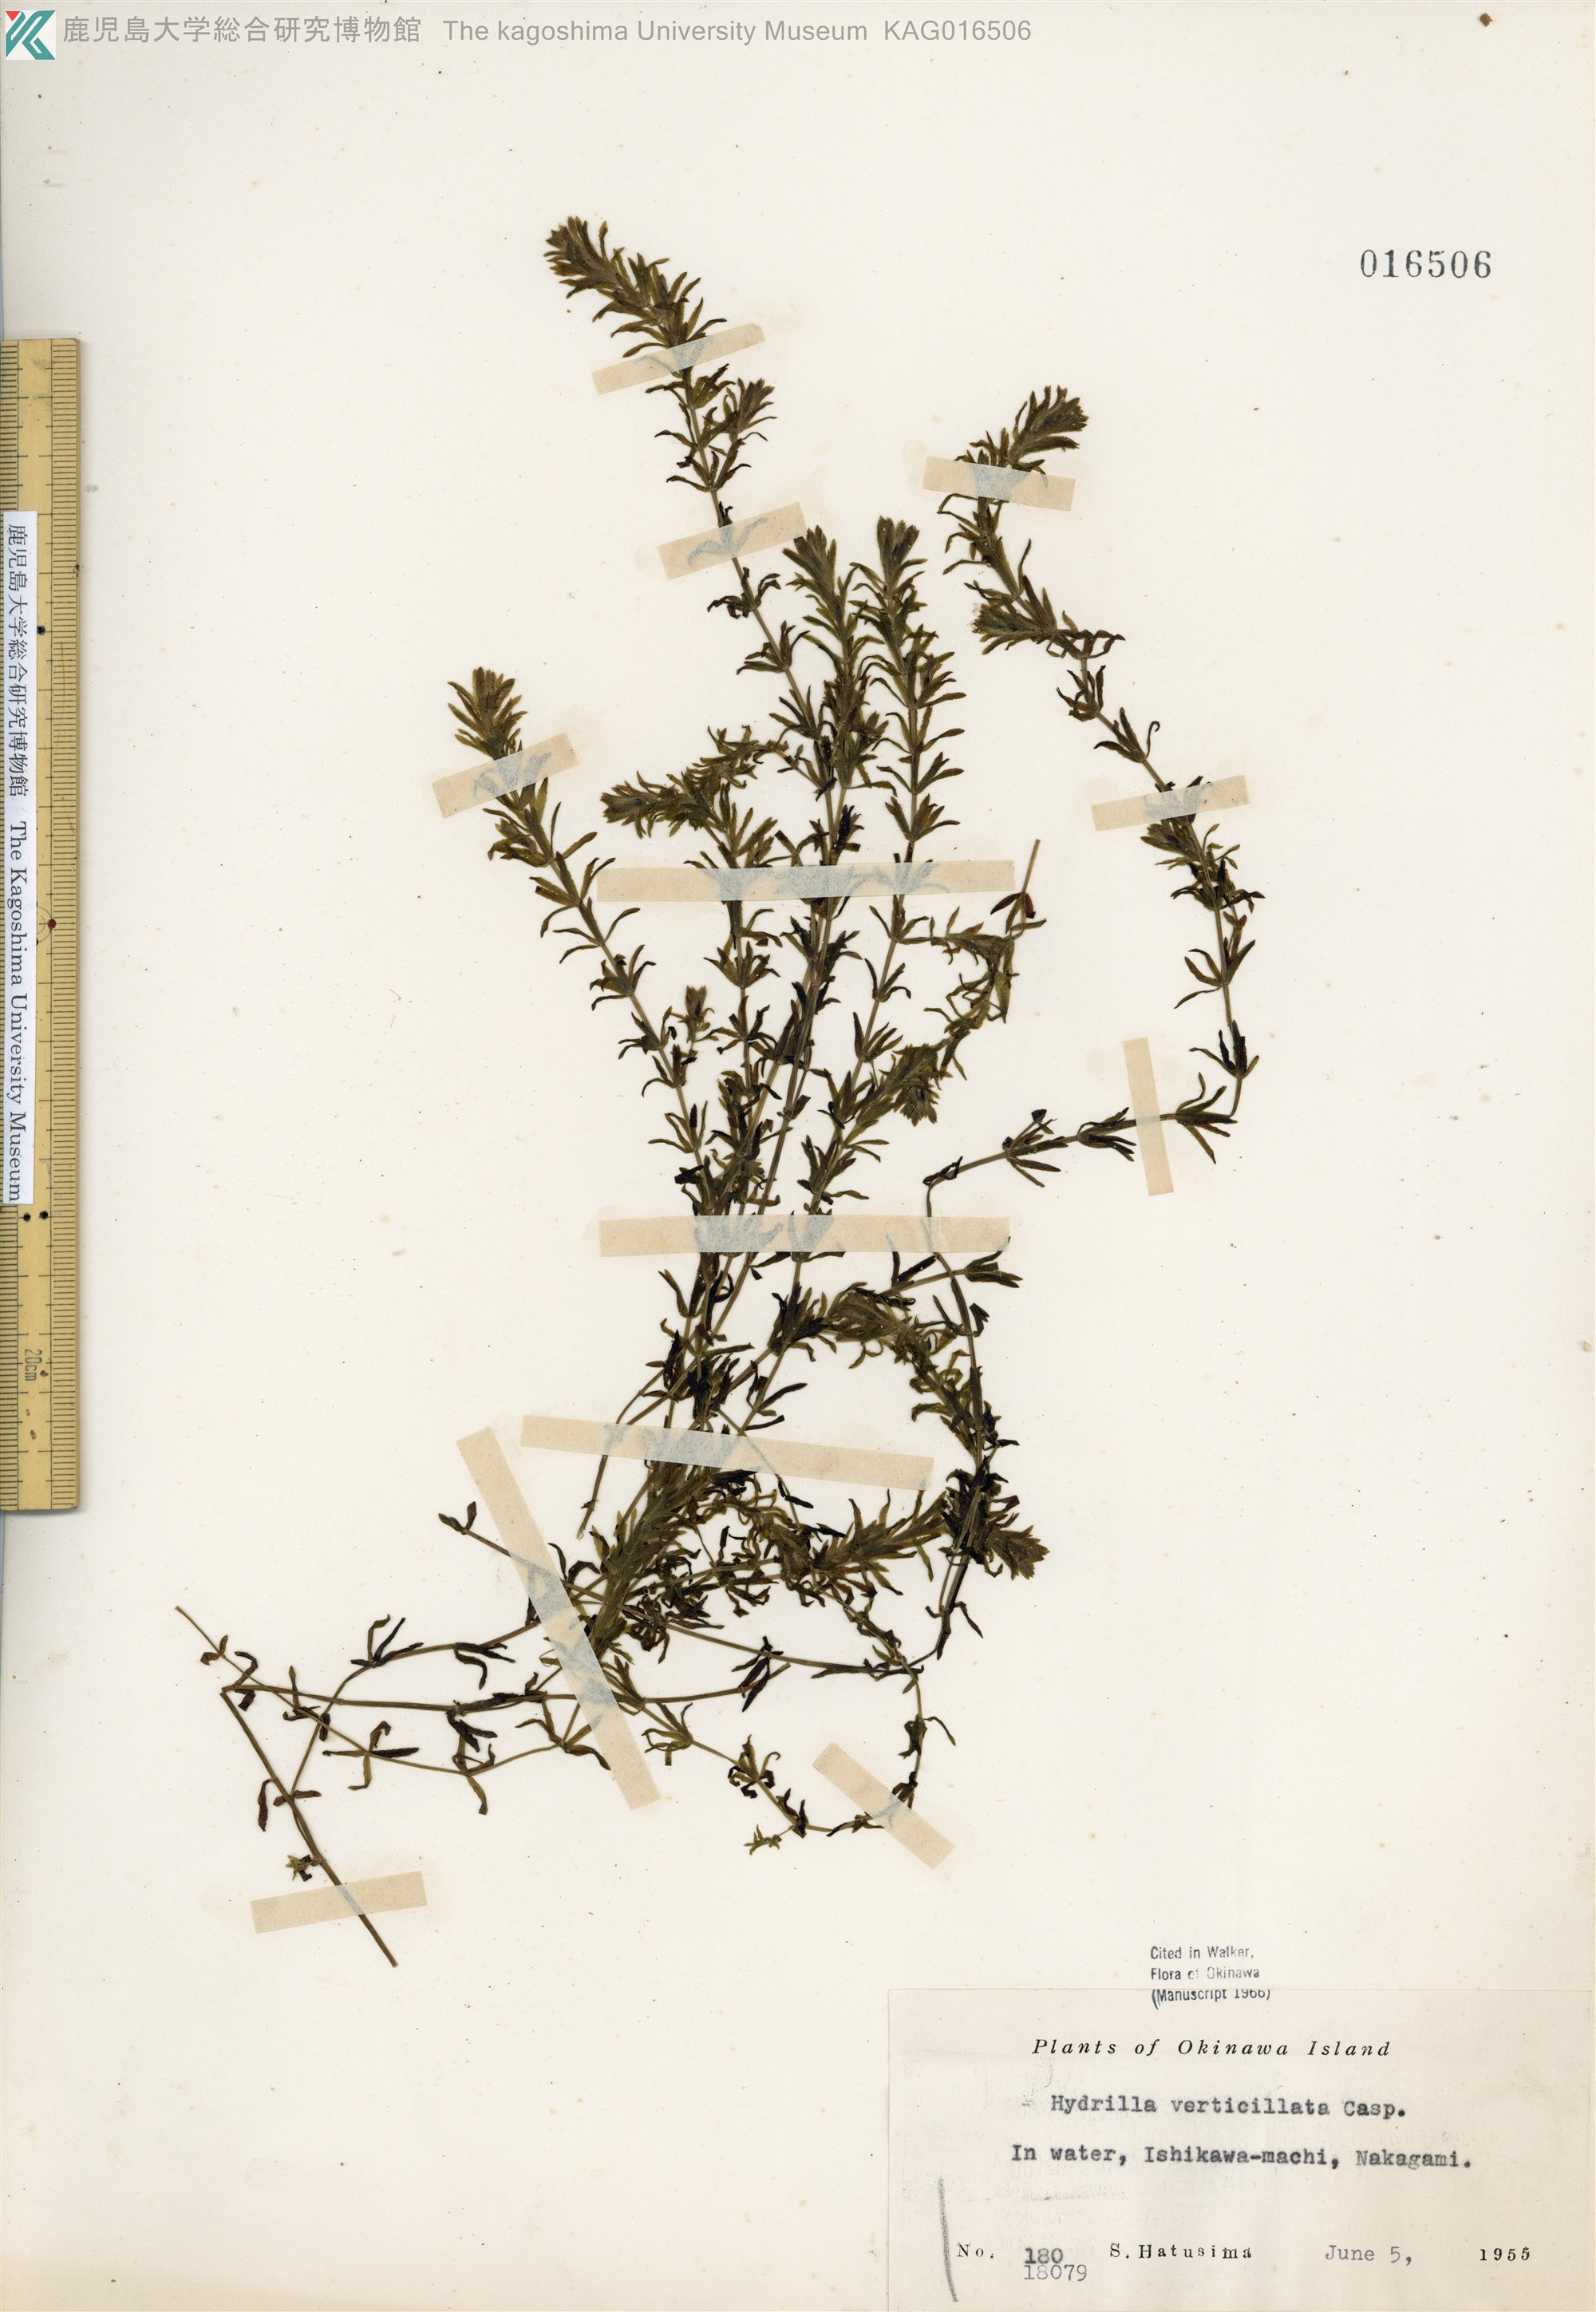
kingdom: Plantae
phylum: Tracheophyta
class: Liliopsida
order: Alismatales
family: Hydrocharitaceae
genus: Hydrilla
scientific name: Hydrilla verticillata
